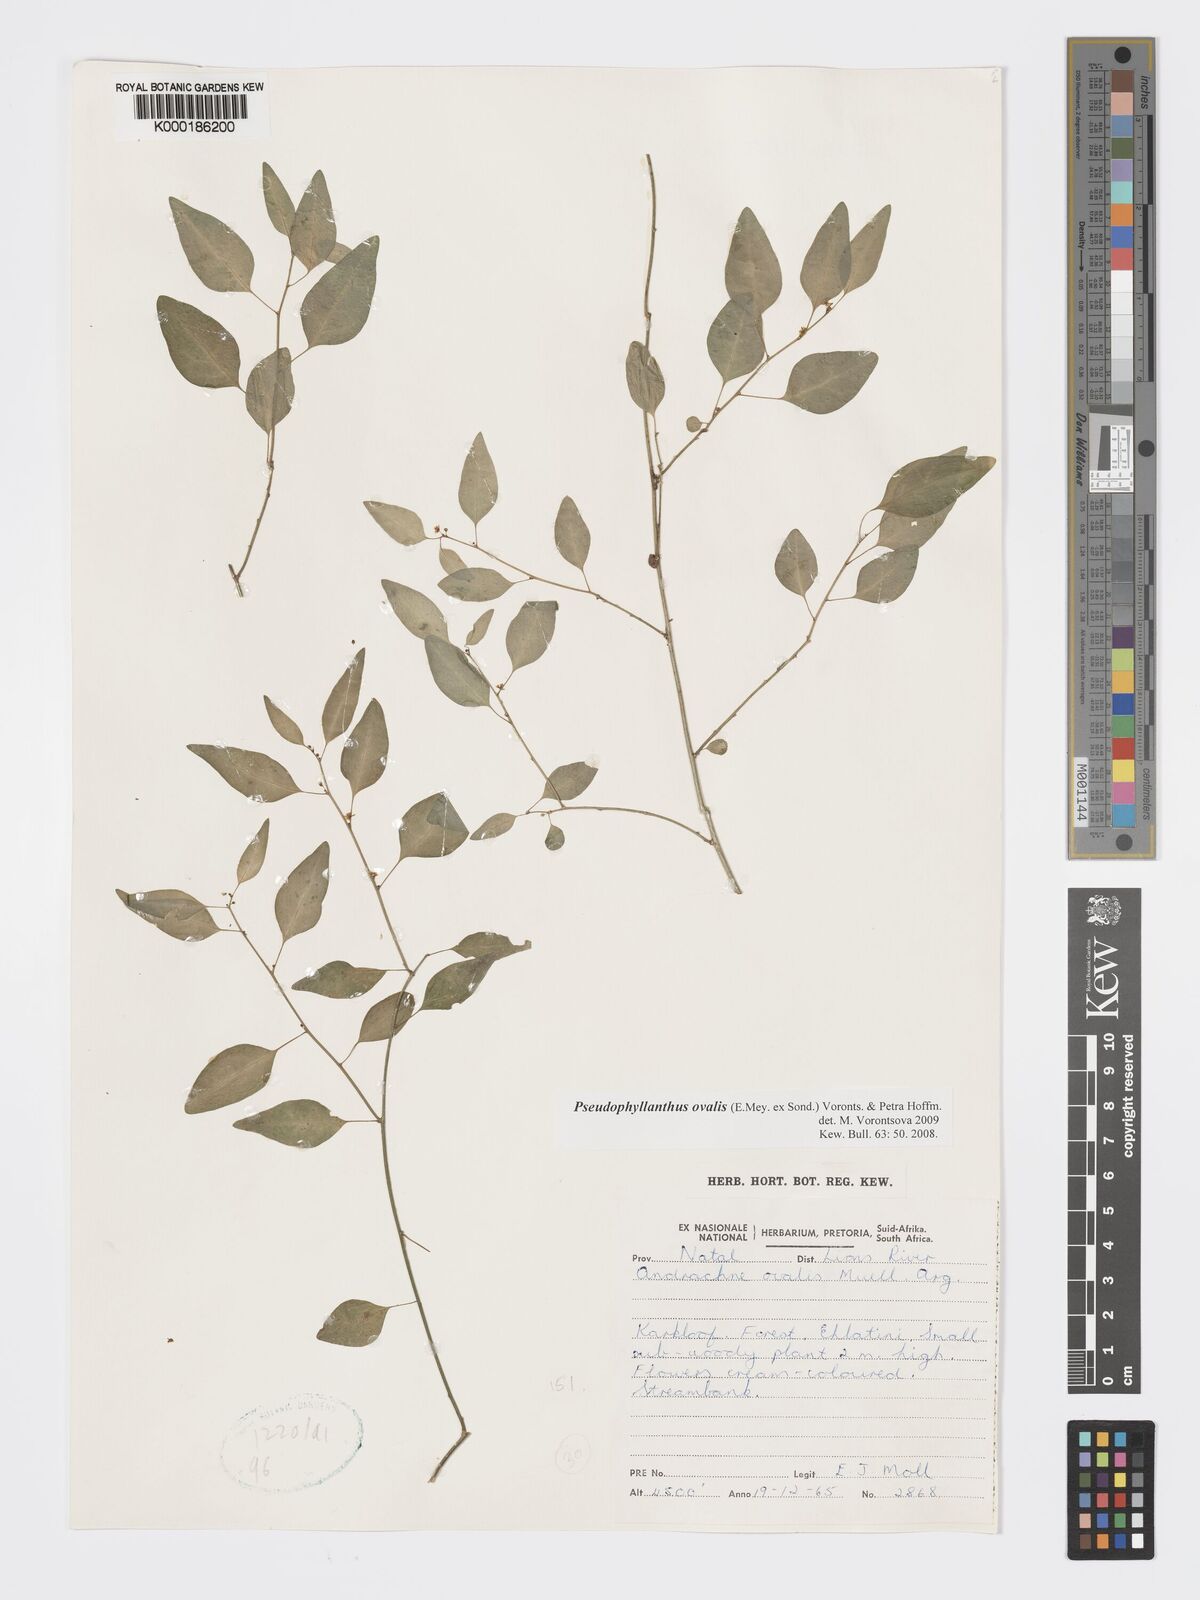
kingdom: Plantae
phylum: Tracheophyta
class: Magnoliopsida
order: Malpighiales
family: Phyllanthaceae
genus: Pseudophyllanthus
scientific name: Pseudophyllanthus ovalis
